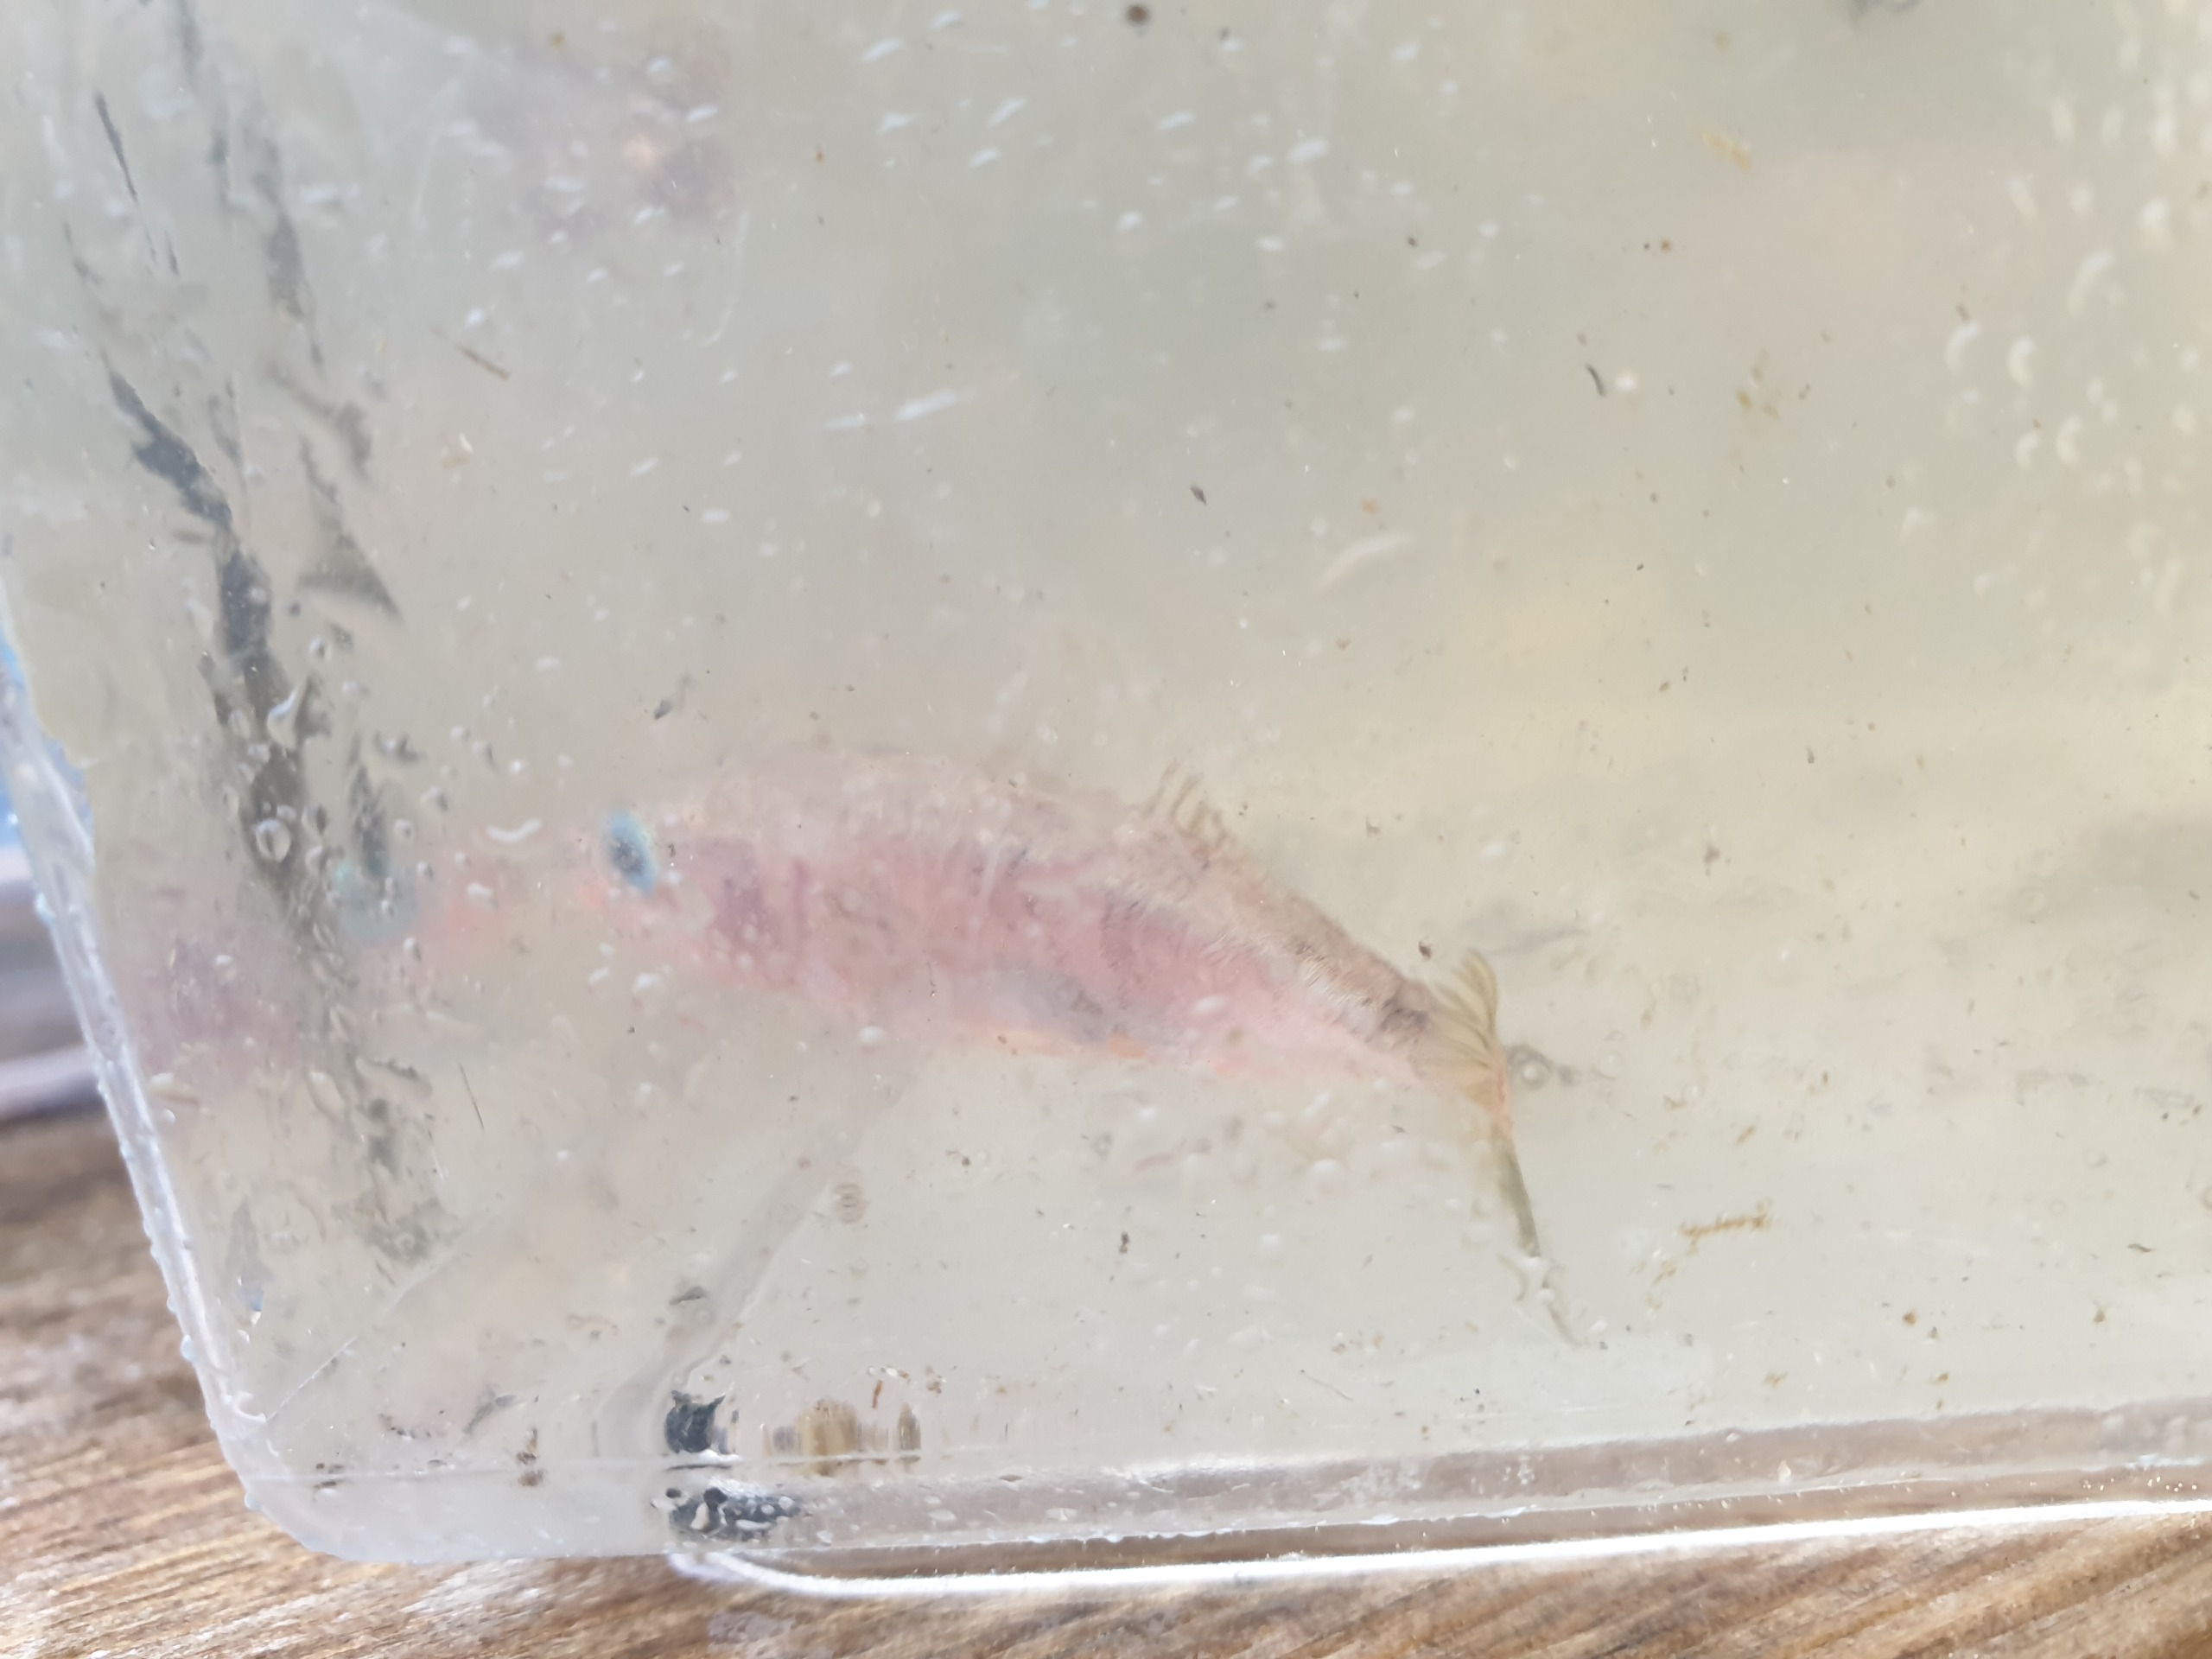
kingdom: Animalia
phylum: Chordata
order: Gasterosteiformes
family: Gasterosteidae
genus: Gasterosteus
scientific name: Gasterosteus aculeatus
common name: Trepigget hundestejle
